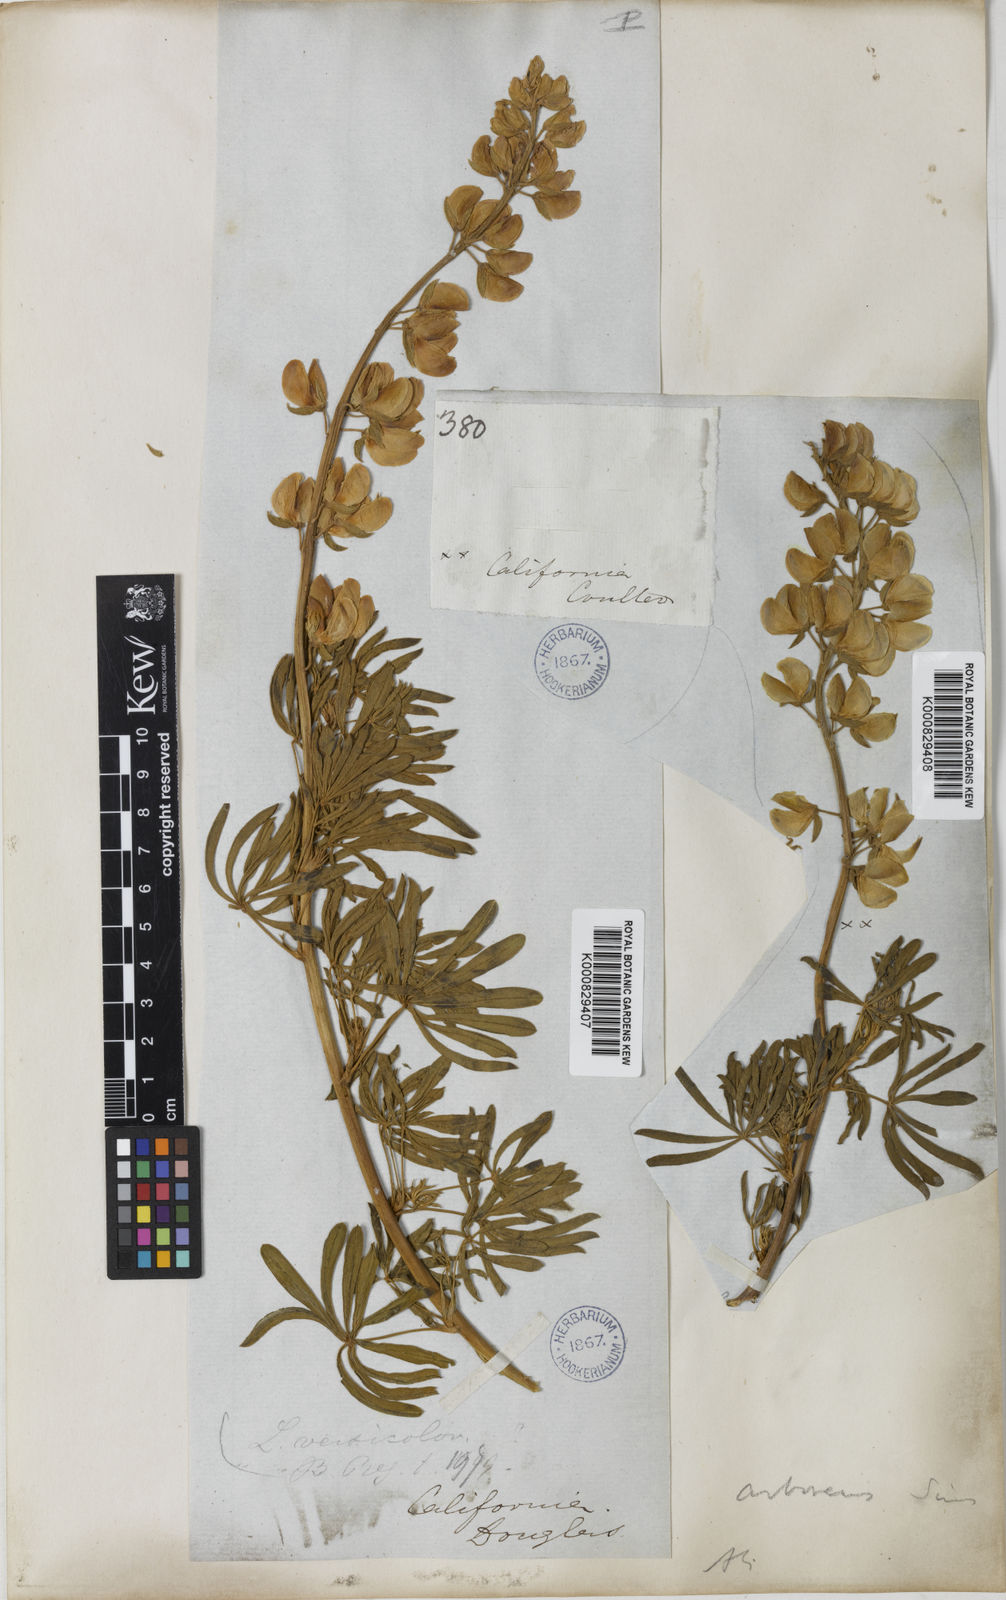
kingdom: Plantae
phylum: Tracheophyta
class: Magnoliopsida
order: Fabales
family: Fabaceae
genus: Lupinus
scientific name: Lupinus arboreus
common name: Yellow bush lupine
